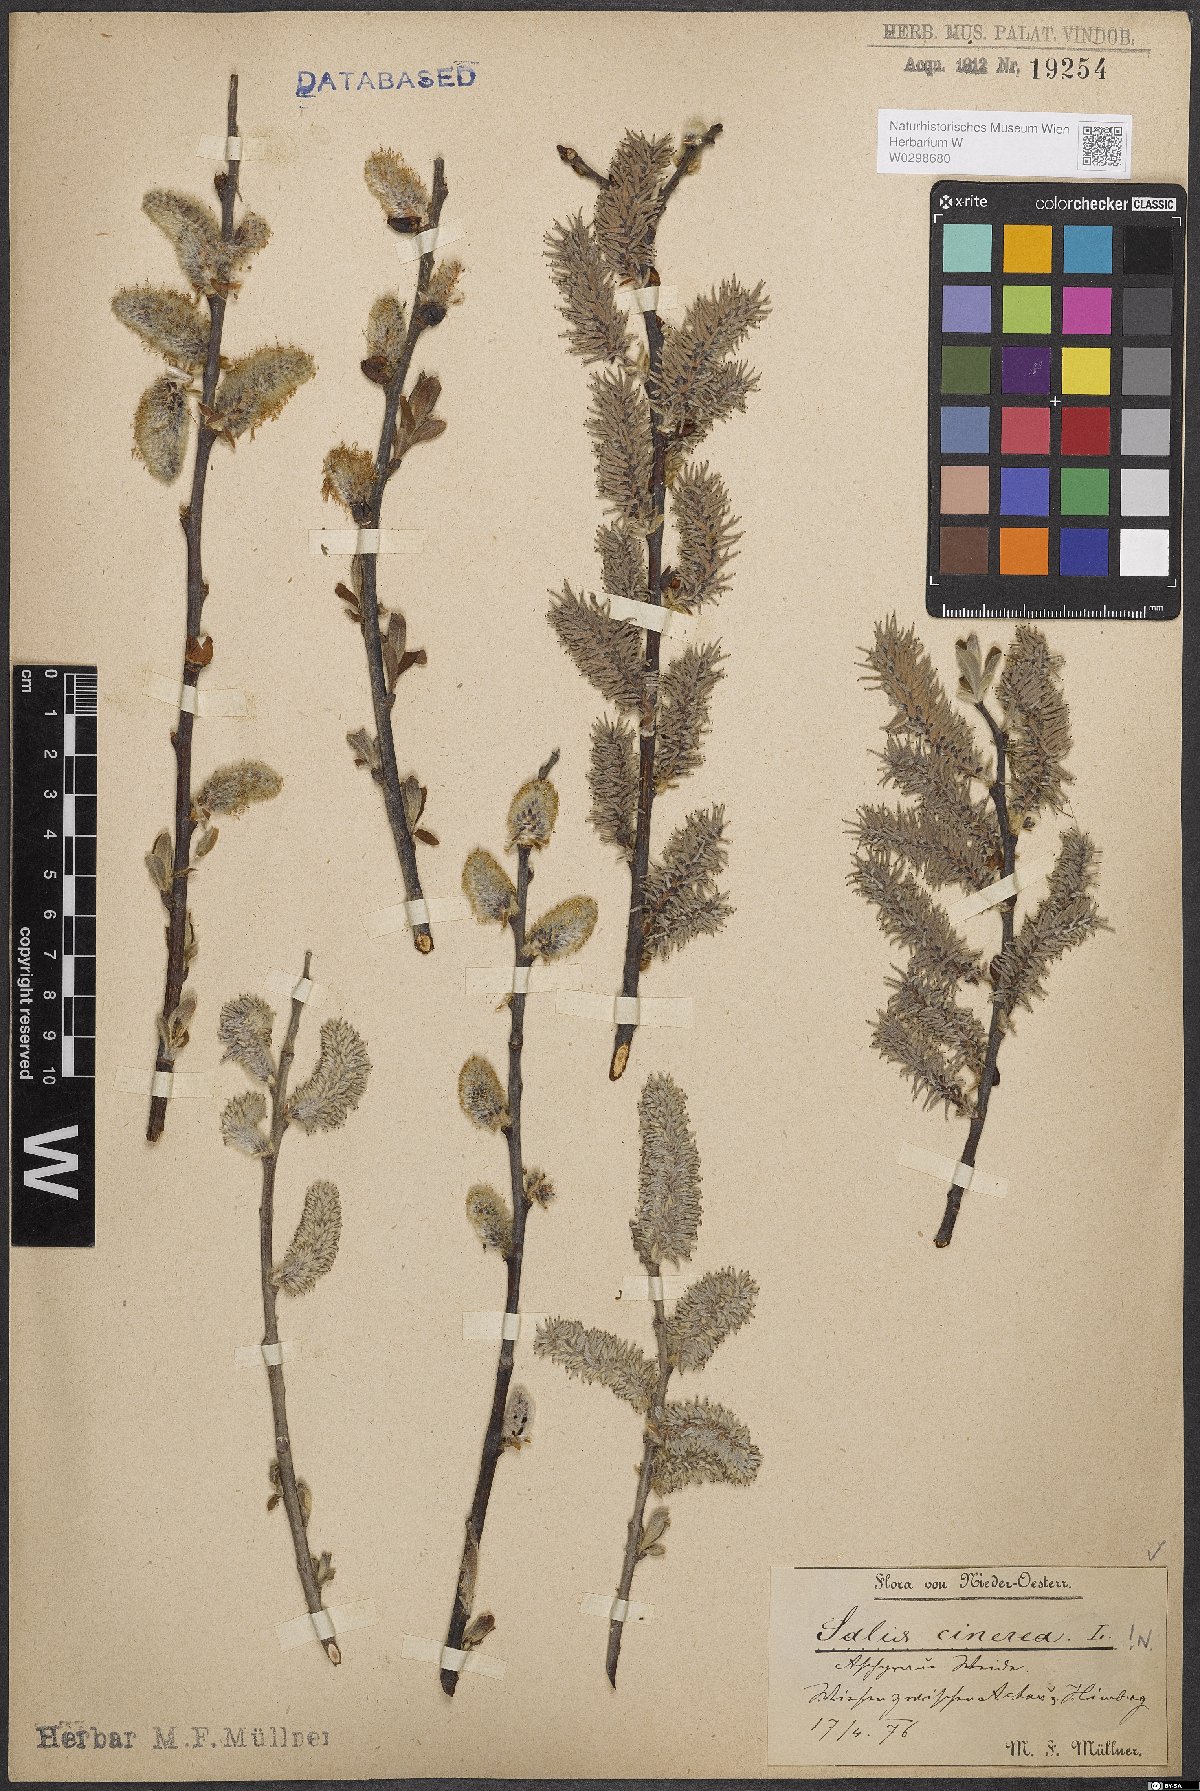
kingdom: Plantae
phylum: Tracheophyta
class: Magnoliopsida
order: Malpighiales
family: Salicaceae
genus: Salix
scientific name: Salix cinerea
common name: Common sallow
